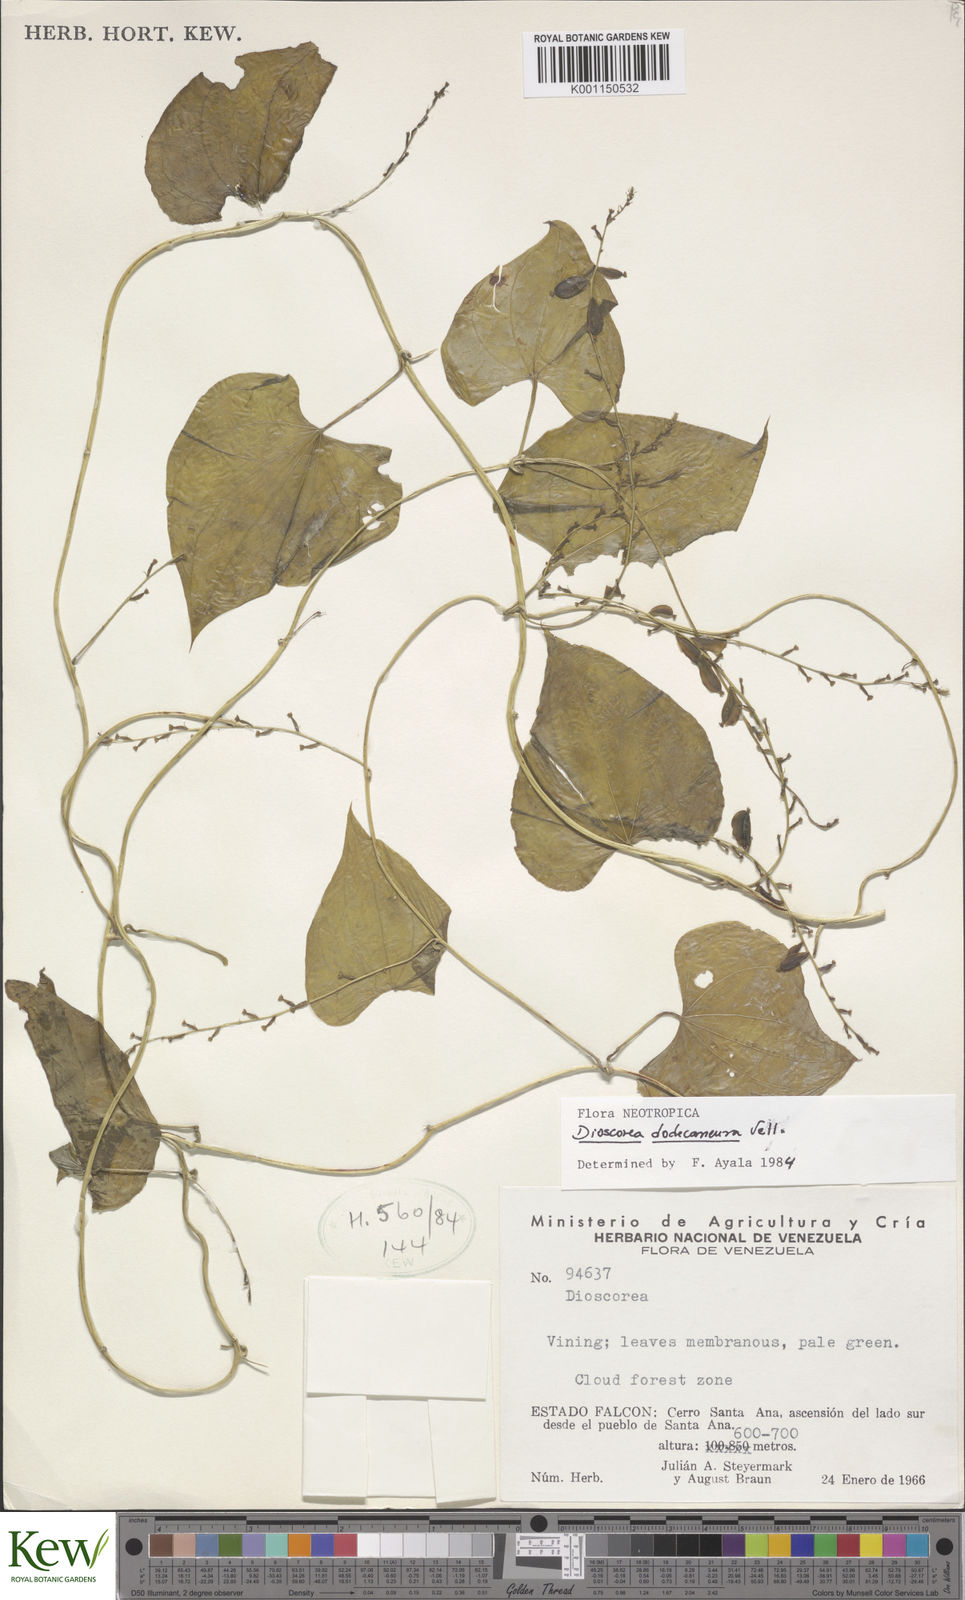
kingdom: Plantae
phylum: Tracheophyta
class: Liliopsida
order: Dioscoreales
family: Dioscoreaceae
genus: Dioscorea
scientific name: Dioscorea dodecaneura
